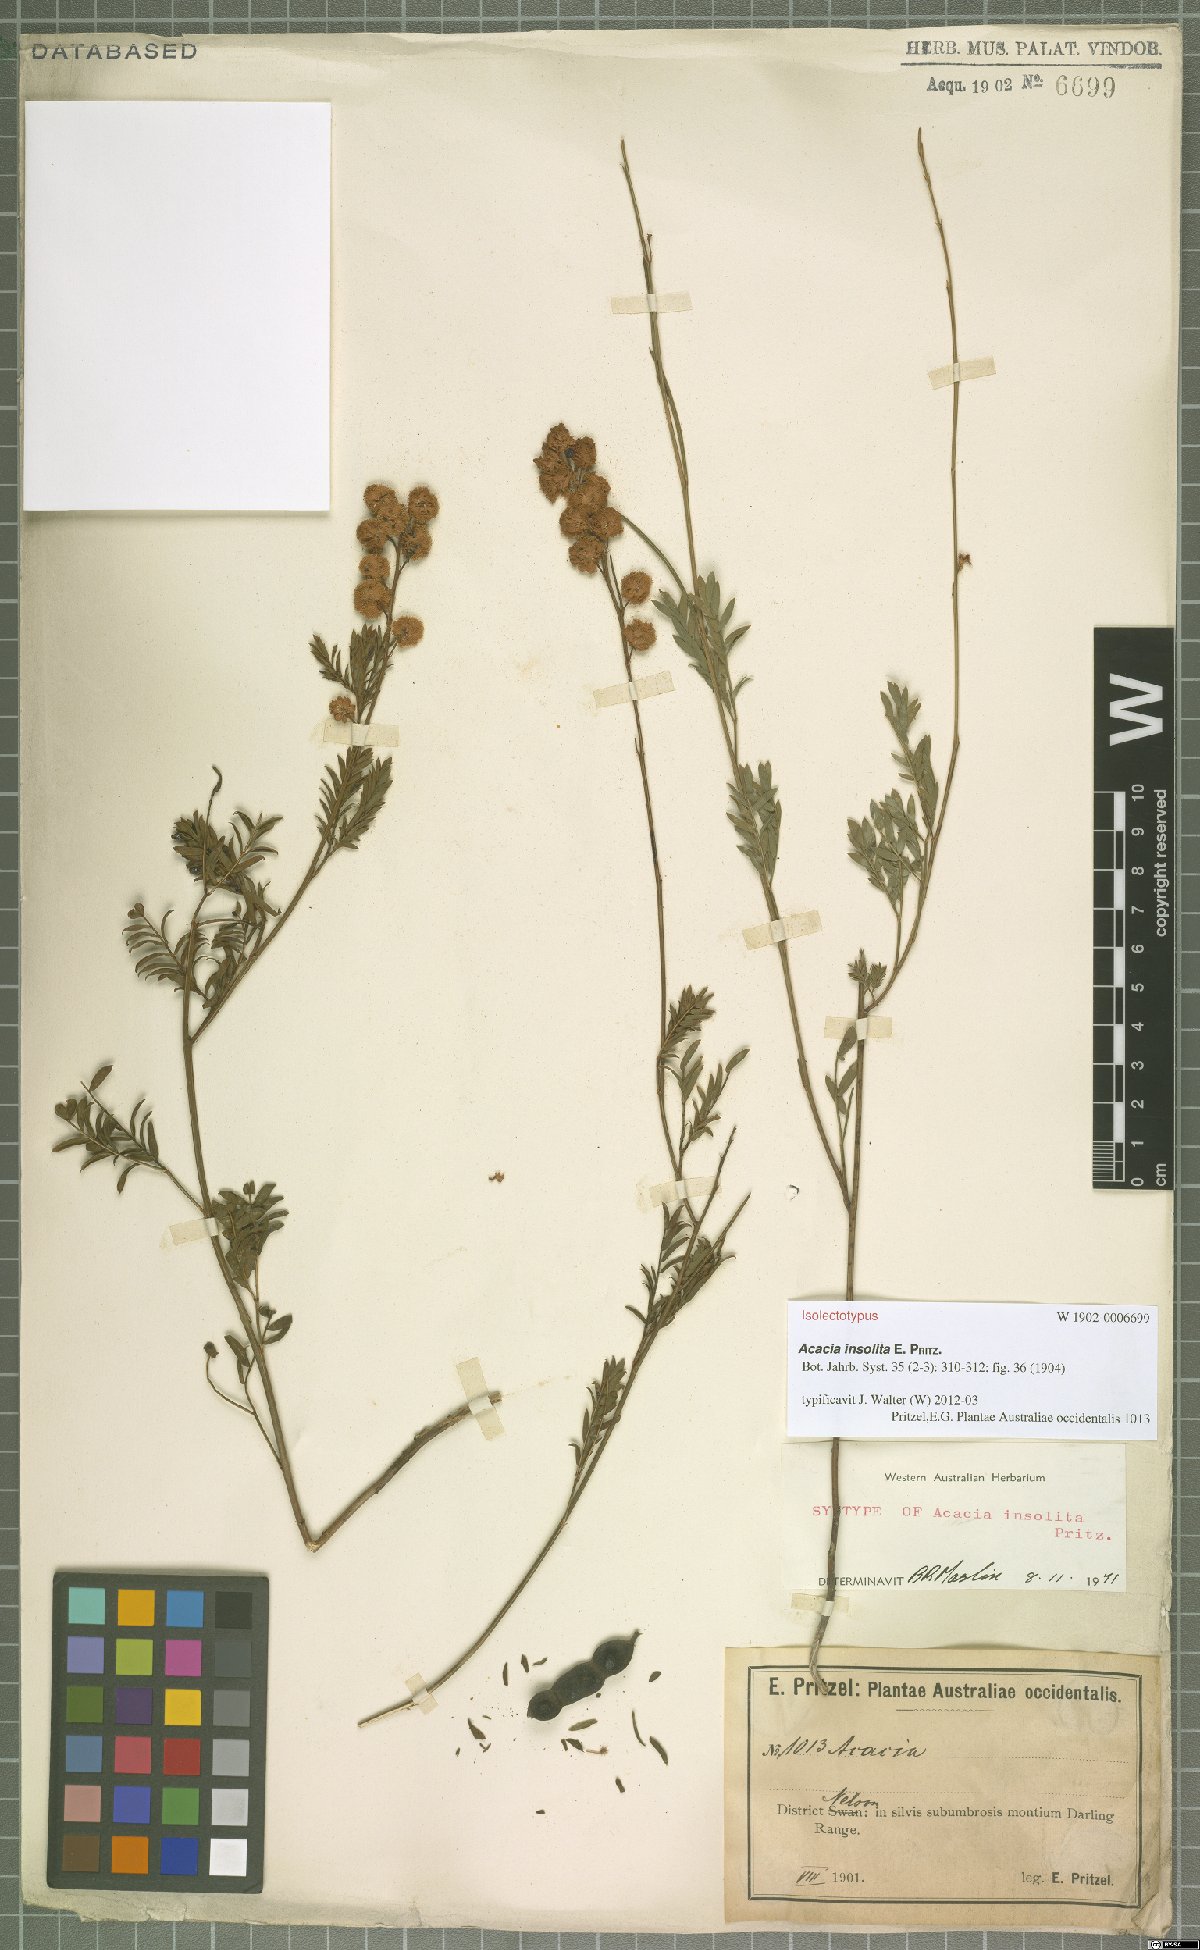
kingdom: Plantae
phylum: Tracheophyta
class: Magnoliopsida
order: Fabales
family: Fabaceae
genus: Acacia
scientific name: Acacia insolita
